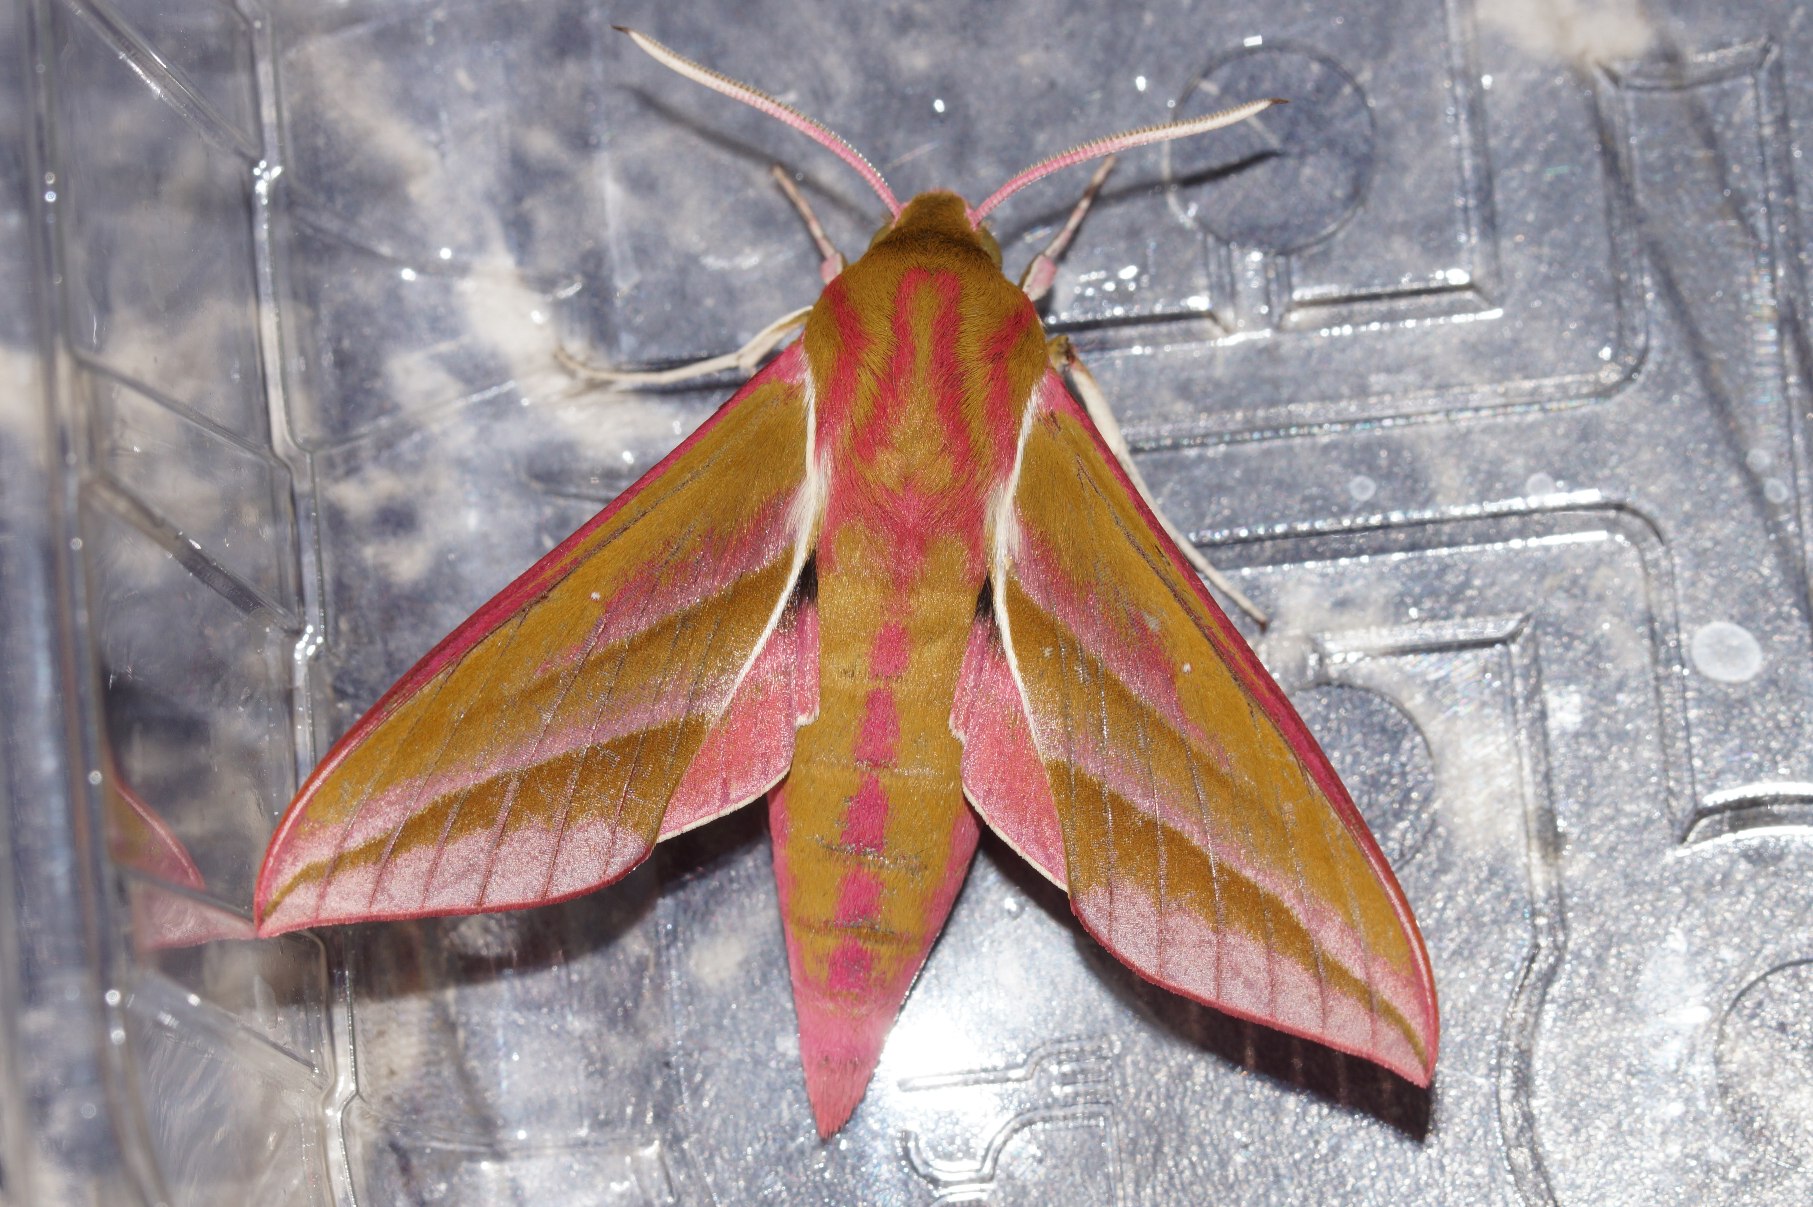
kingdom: Animalia
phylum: Arthropoda
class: Insecta
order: Lepidoptera
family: Sphingidae
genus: Deilephila
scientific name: Deilephila elpenor
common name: Dueurtsværmer
